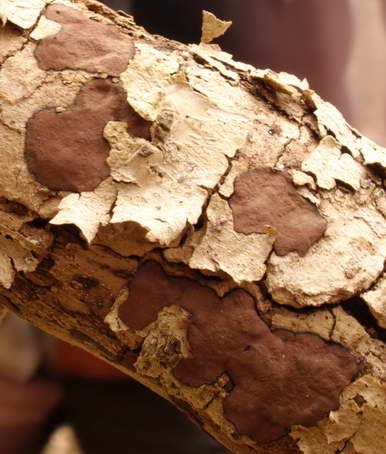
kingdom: Fungi
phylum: Ascomycota
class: Sordariomycetes
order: Xylariales
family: Hypoxylaceae
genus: Hypoxylon
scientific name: Hypoxylon petriniae
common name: nedsænket kulbær
